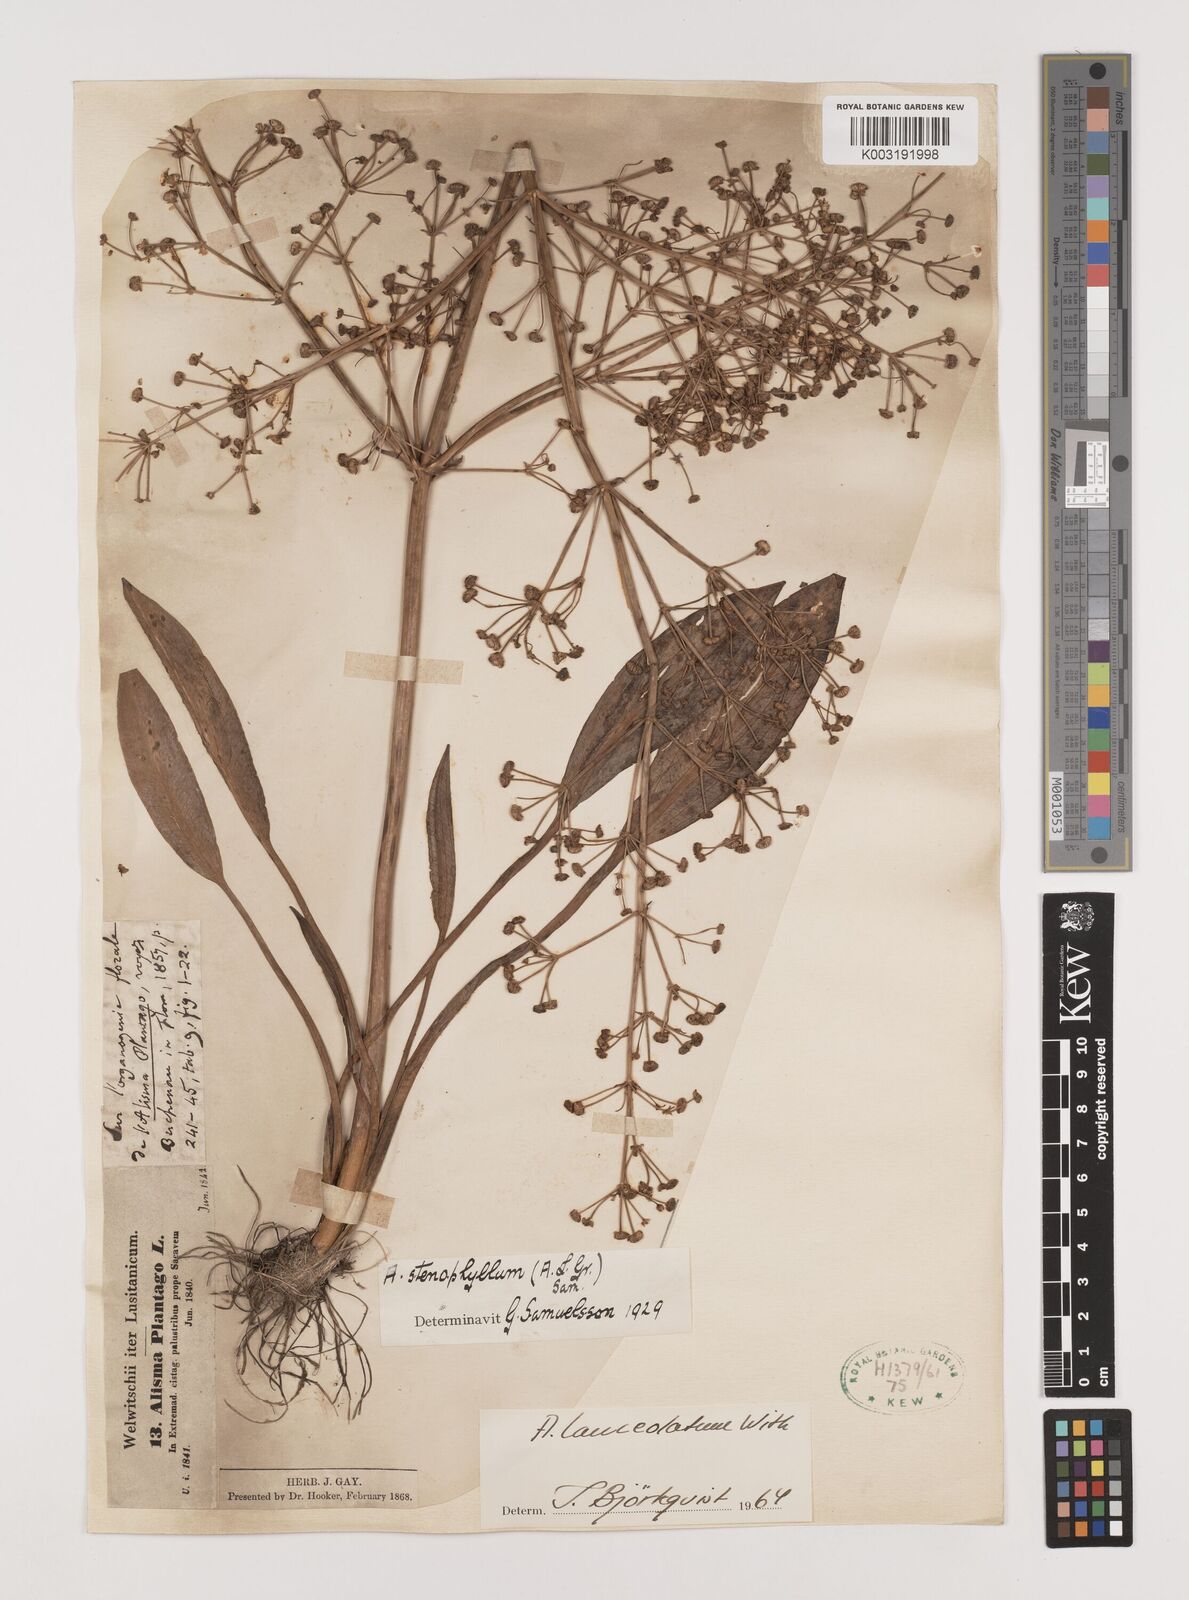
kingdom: Plantae
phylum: Tracheophyta
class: Liliopsida
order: Alismatales
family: Alismataceae
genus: Alisma
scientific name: Alisma lanceolatum
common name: Narrow-leaved water-plantain
